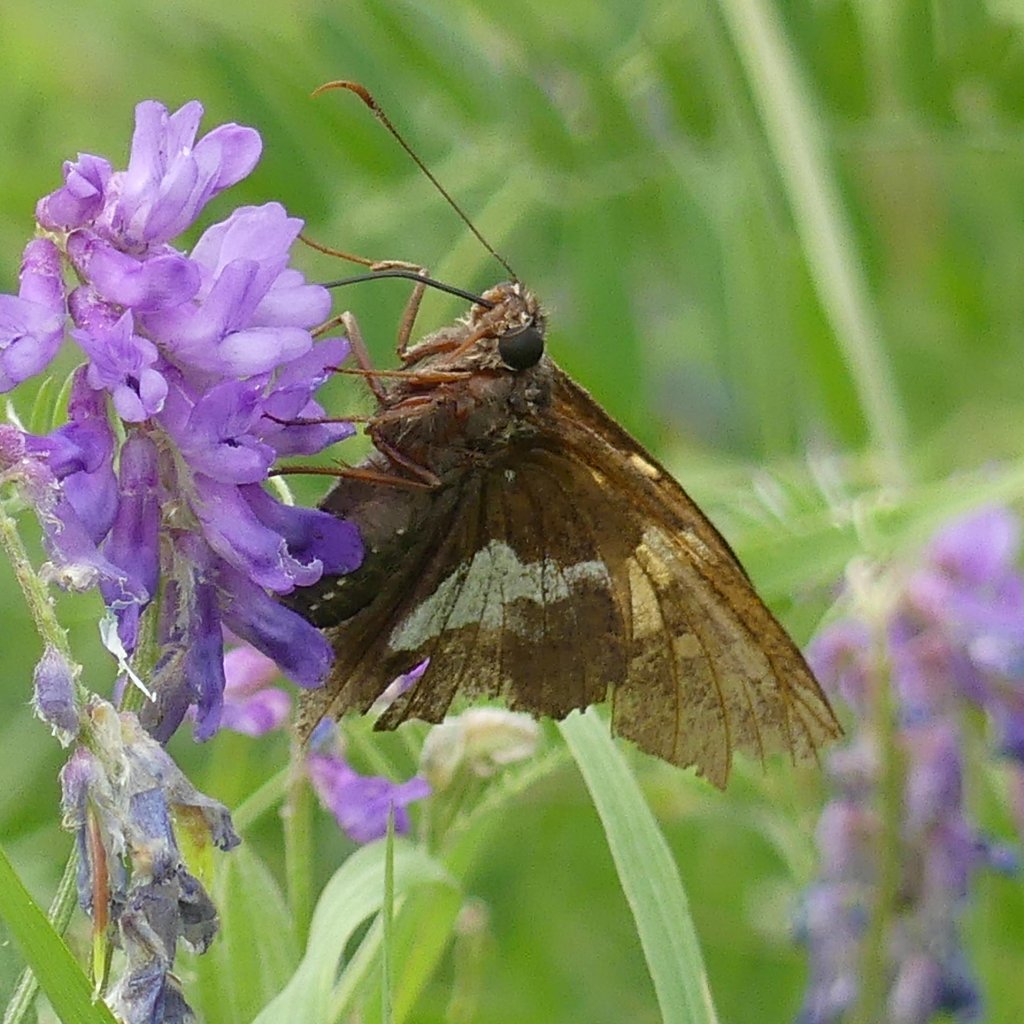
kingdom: Animalia
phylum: Arthropoda
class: Insecta
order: Lepidoptera
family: Hesperiidae
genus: Epargyreus
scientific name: Epargyreus clarus
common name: Silver-spotted Skipper
